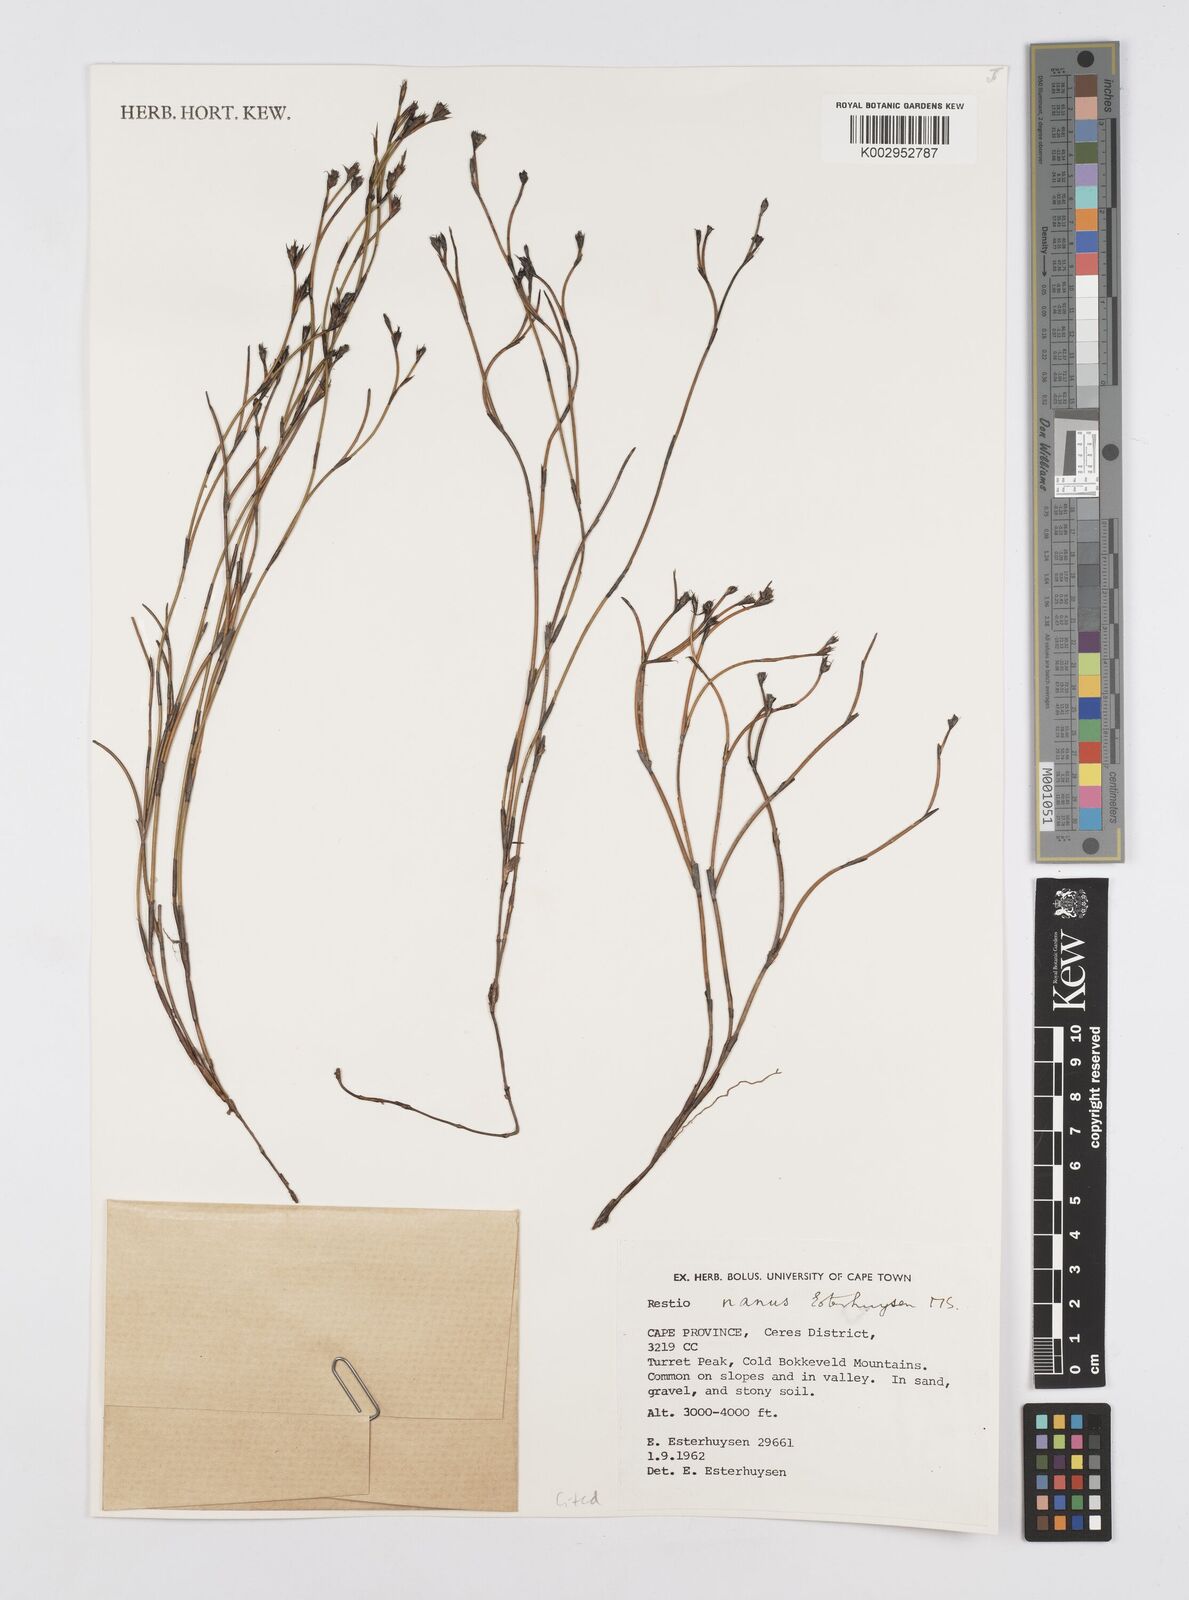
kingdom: Plantae
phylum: Tracheophyta
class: Liliopsida
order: Poales
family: Restionaceae
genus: Restio
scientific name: Restio nanus
